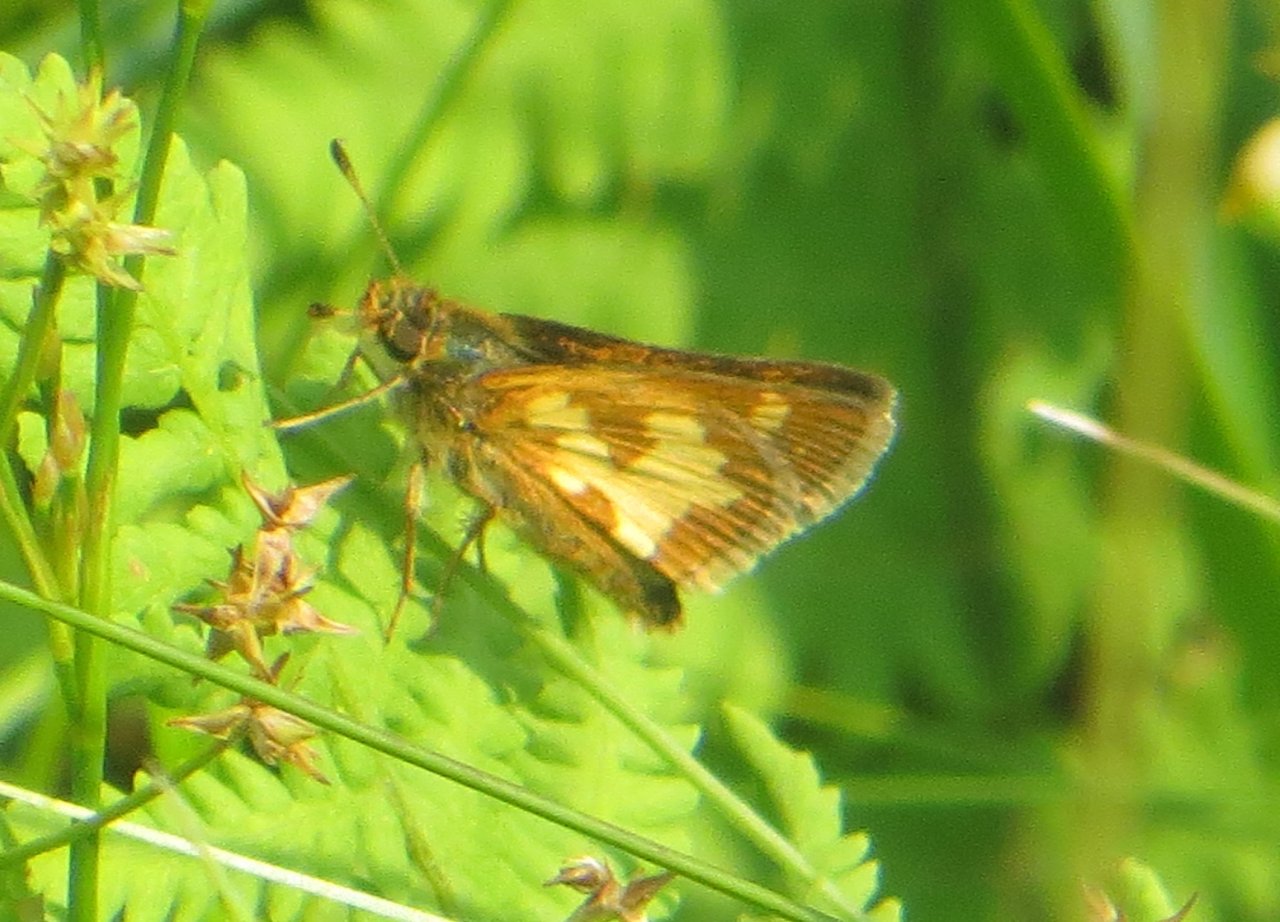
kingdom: Animalia
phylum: Arthropoda
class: Insecta
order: Lepidoptera
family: Hesperiidae
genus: Polites
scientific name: Polites coras
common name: Peck's Skipper
